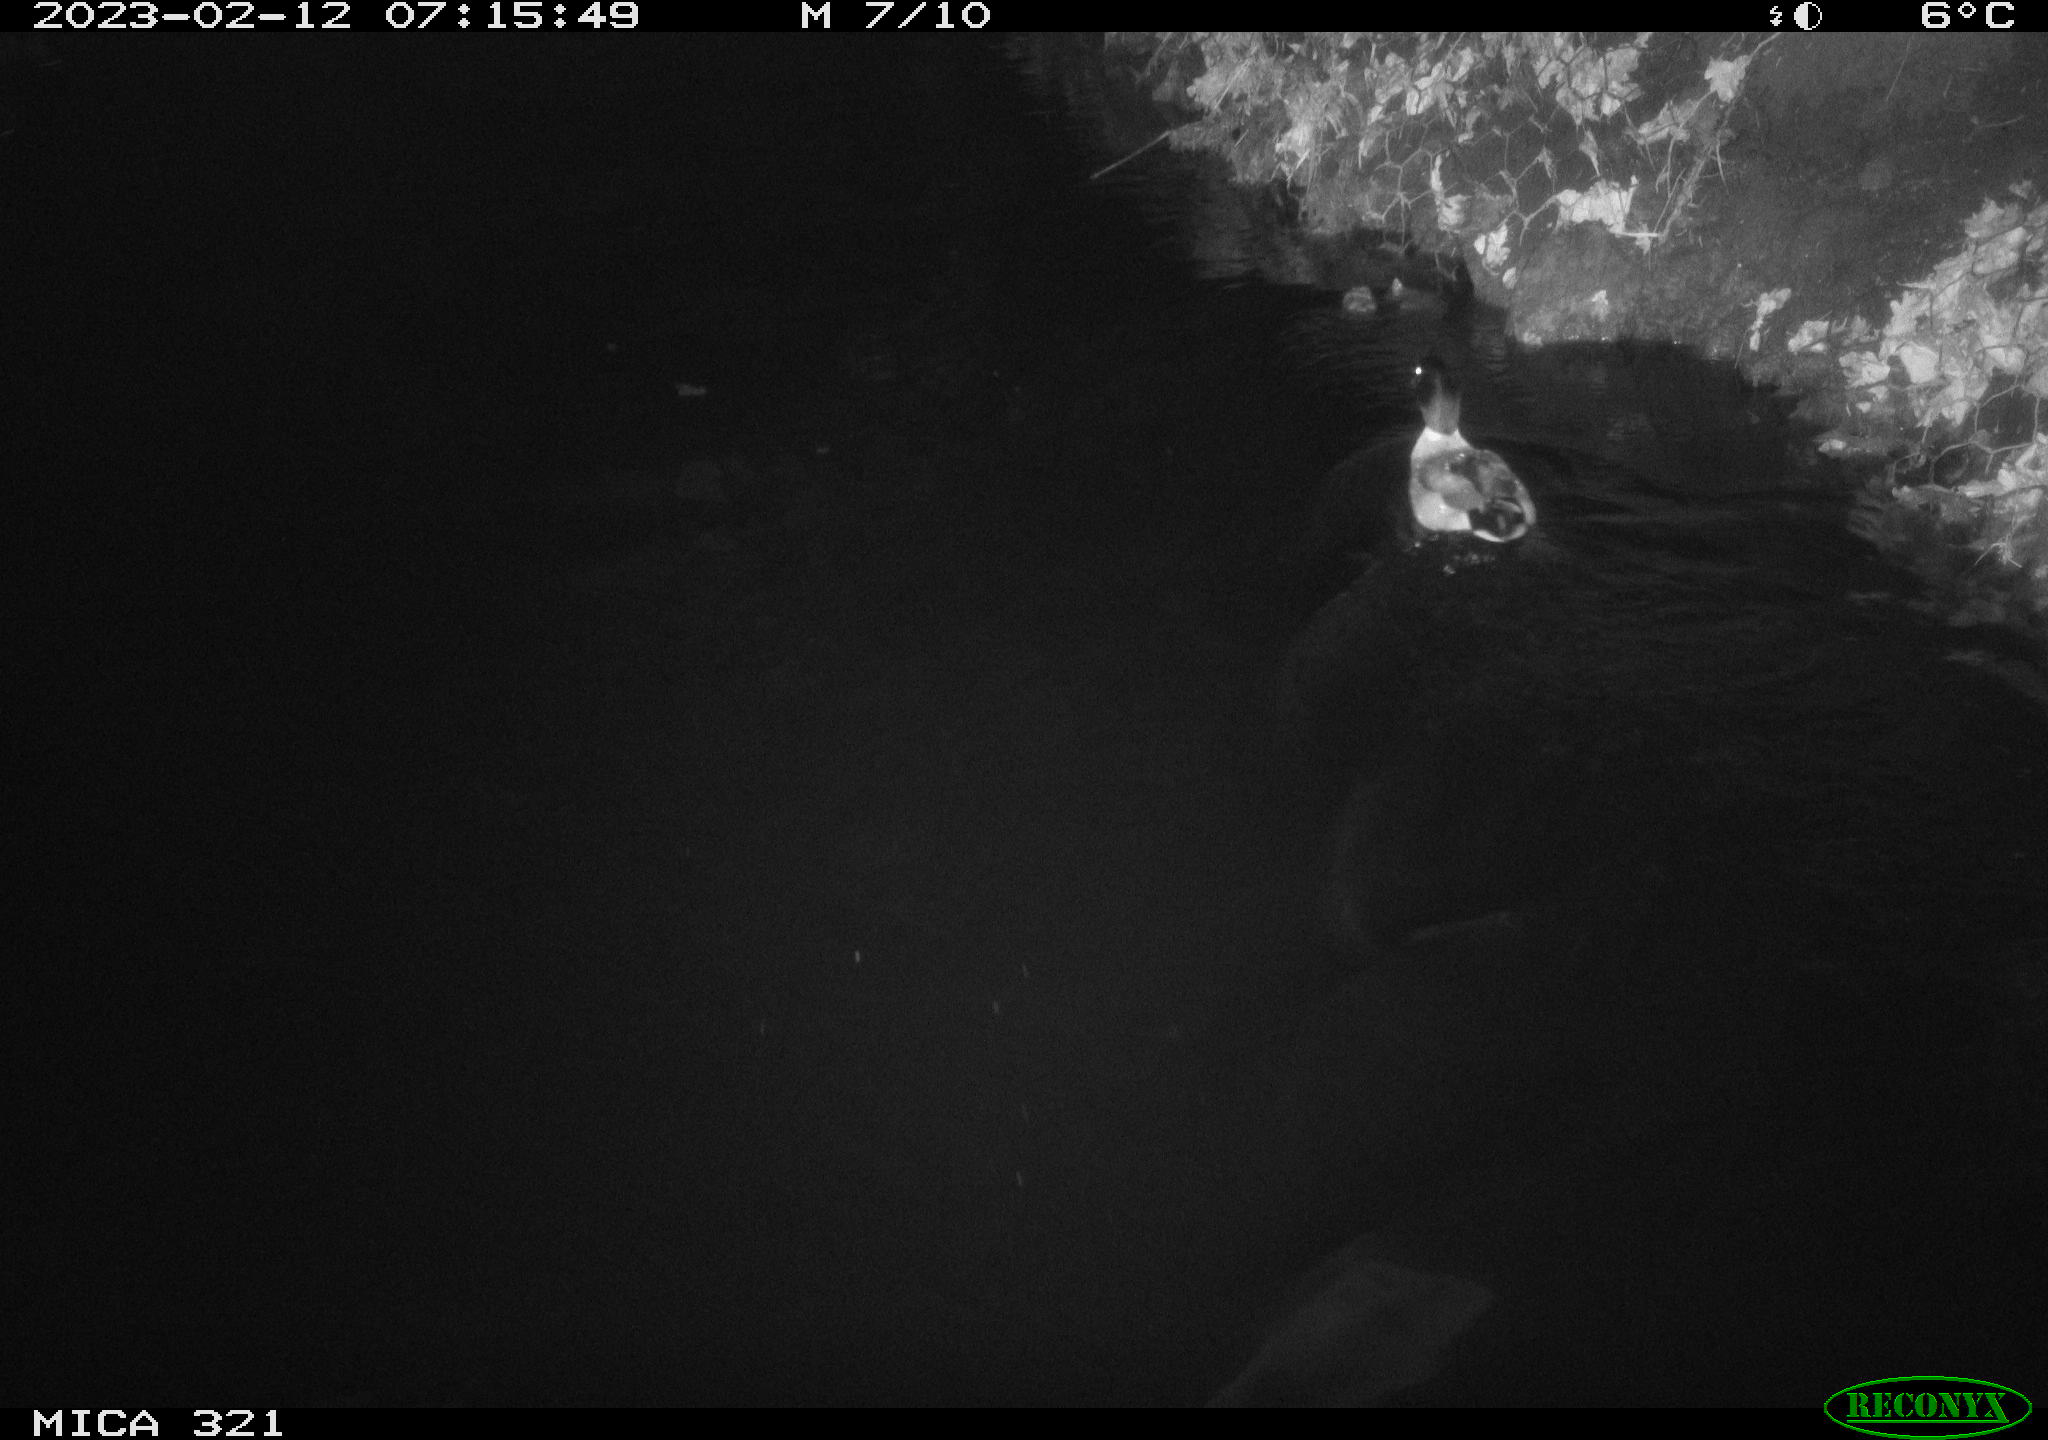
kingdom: Animalia
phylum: Chordata
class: Aves
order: Anseriformes
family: Anatidae
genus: Anas
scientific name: Anas
